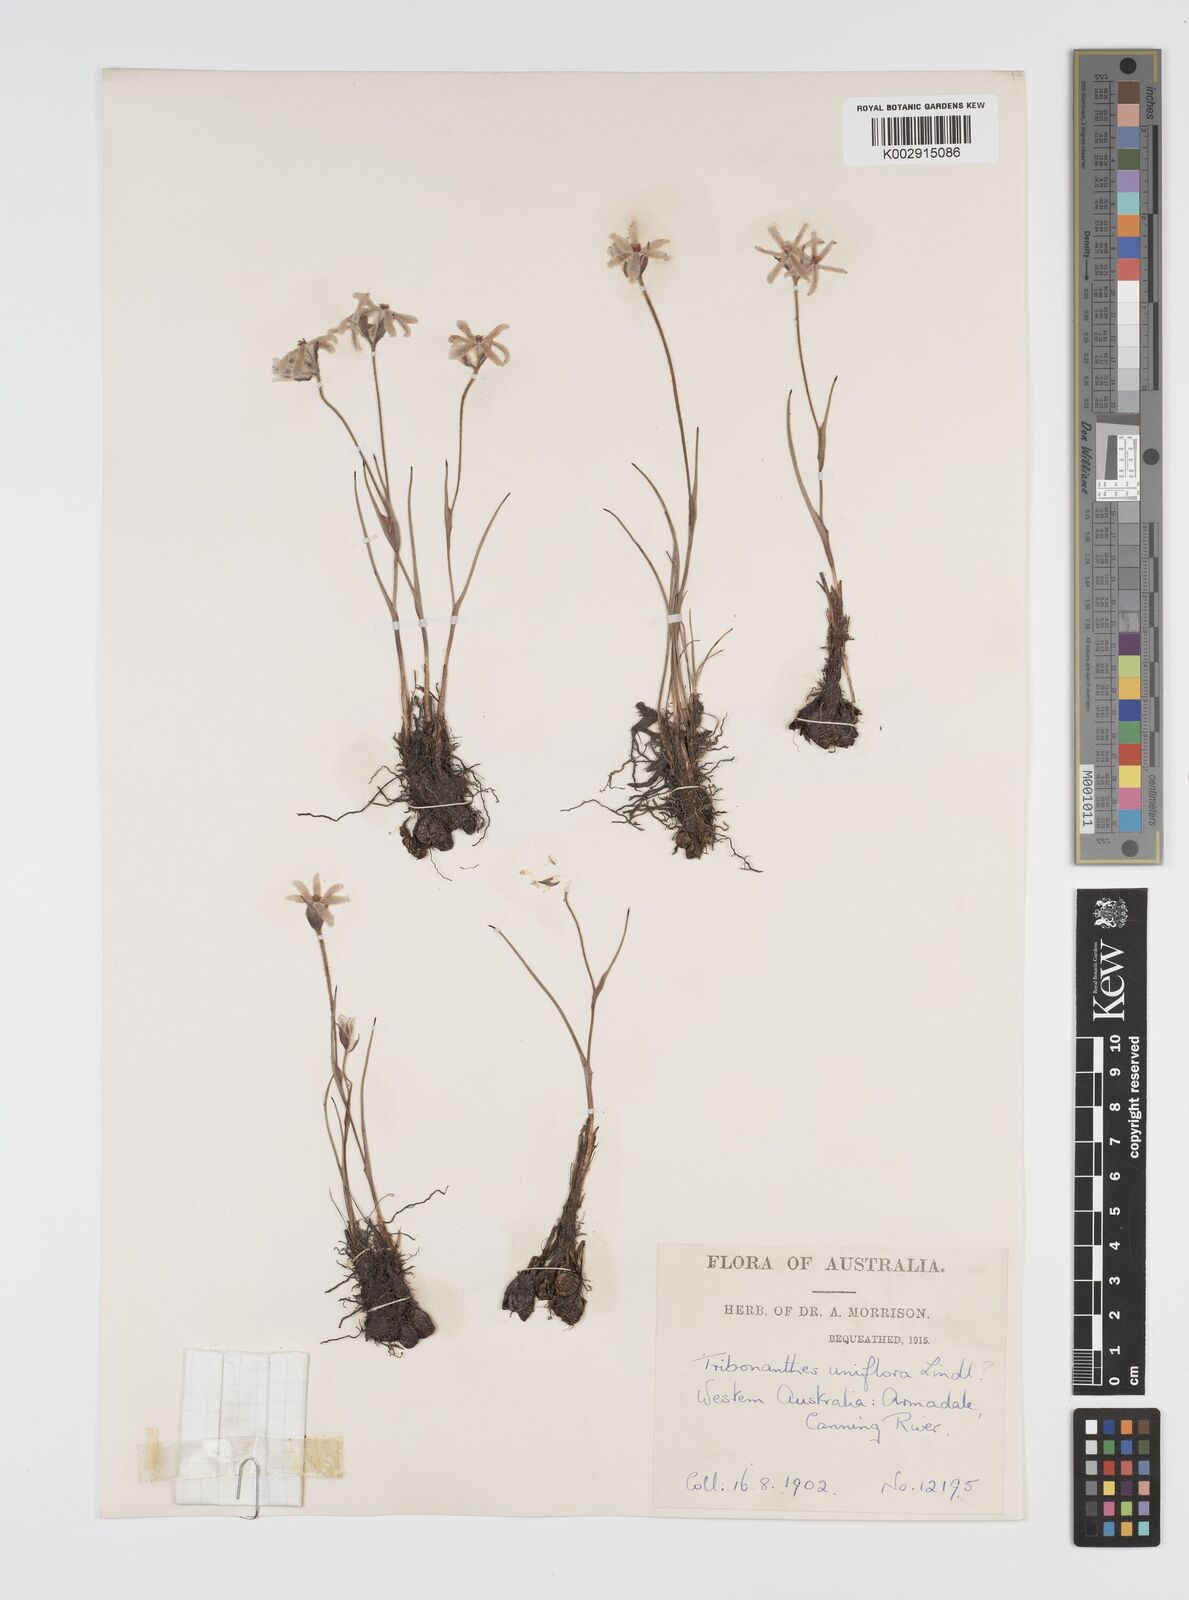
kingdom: Plantae
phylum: Tracheophyta
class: Liliopsida
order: Commelinales
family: Haemodoraceae
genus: Tribonanthes
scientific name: Tribonanthes uniflora
